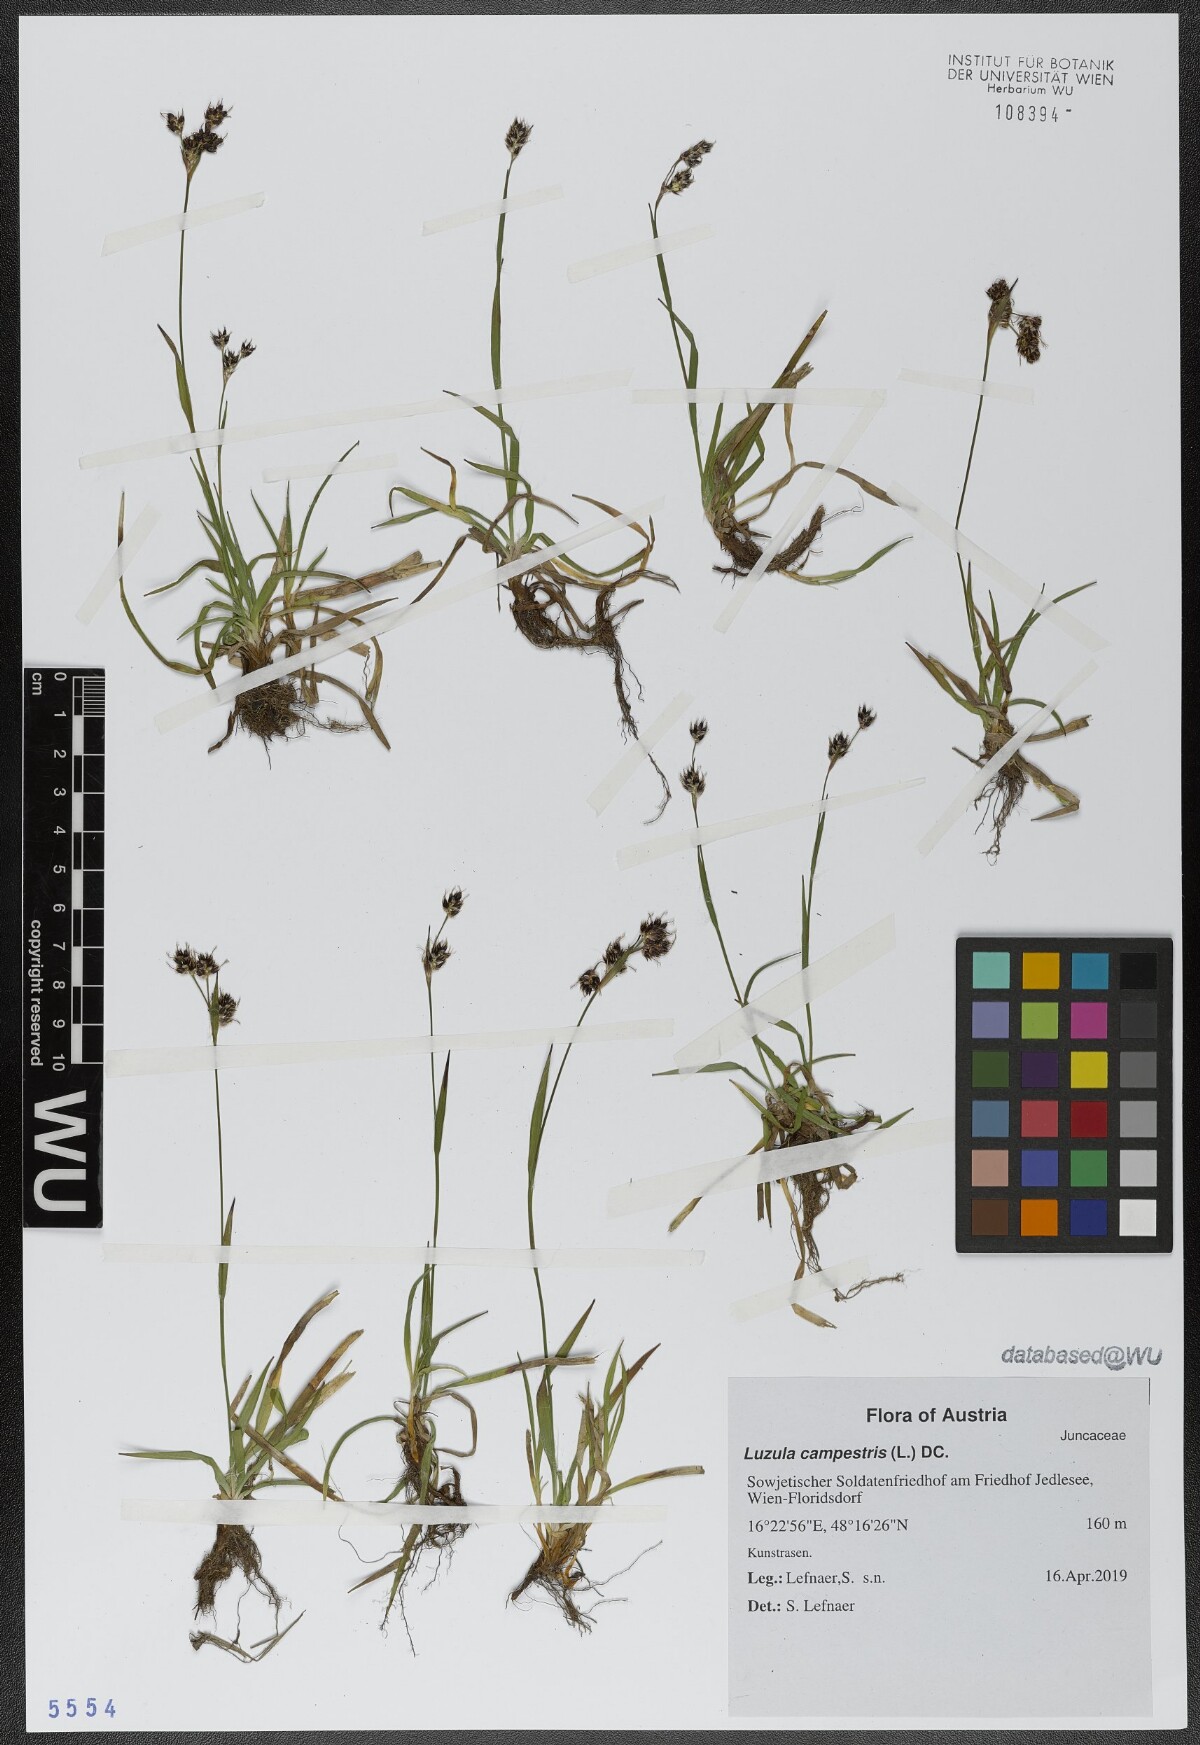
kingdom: Plantae
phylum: Tracheophyta
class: Liliopsida
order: Poales
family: Juncaceae
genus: Luzula
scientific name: Luzula campestris
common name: Field wood-rush
